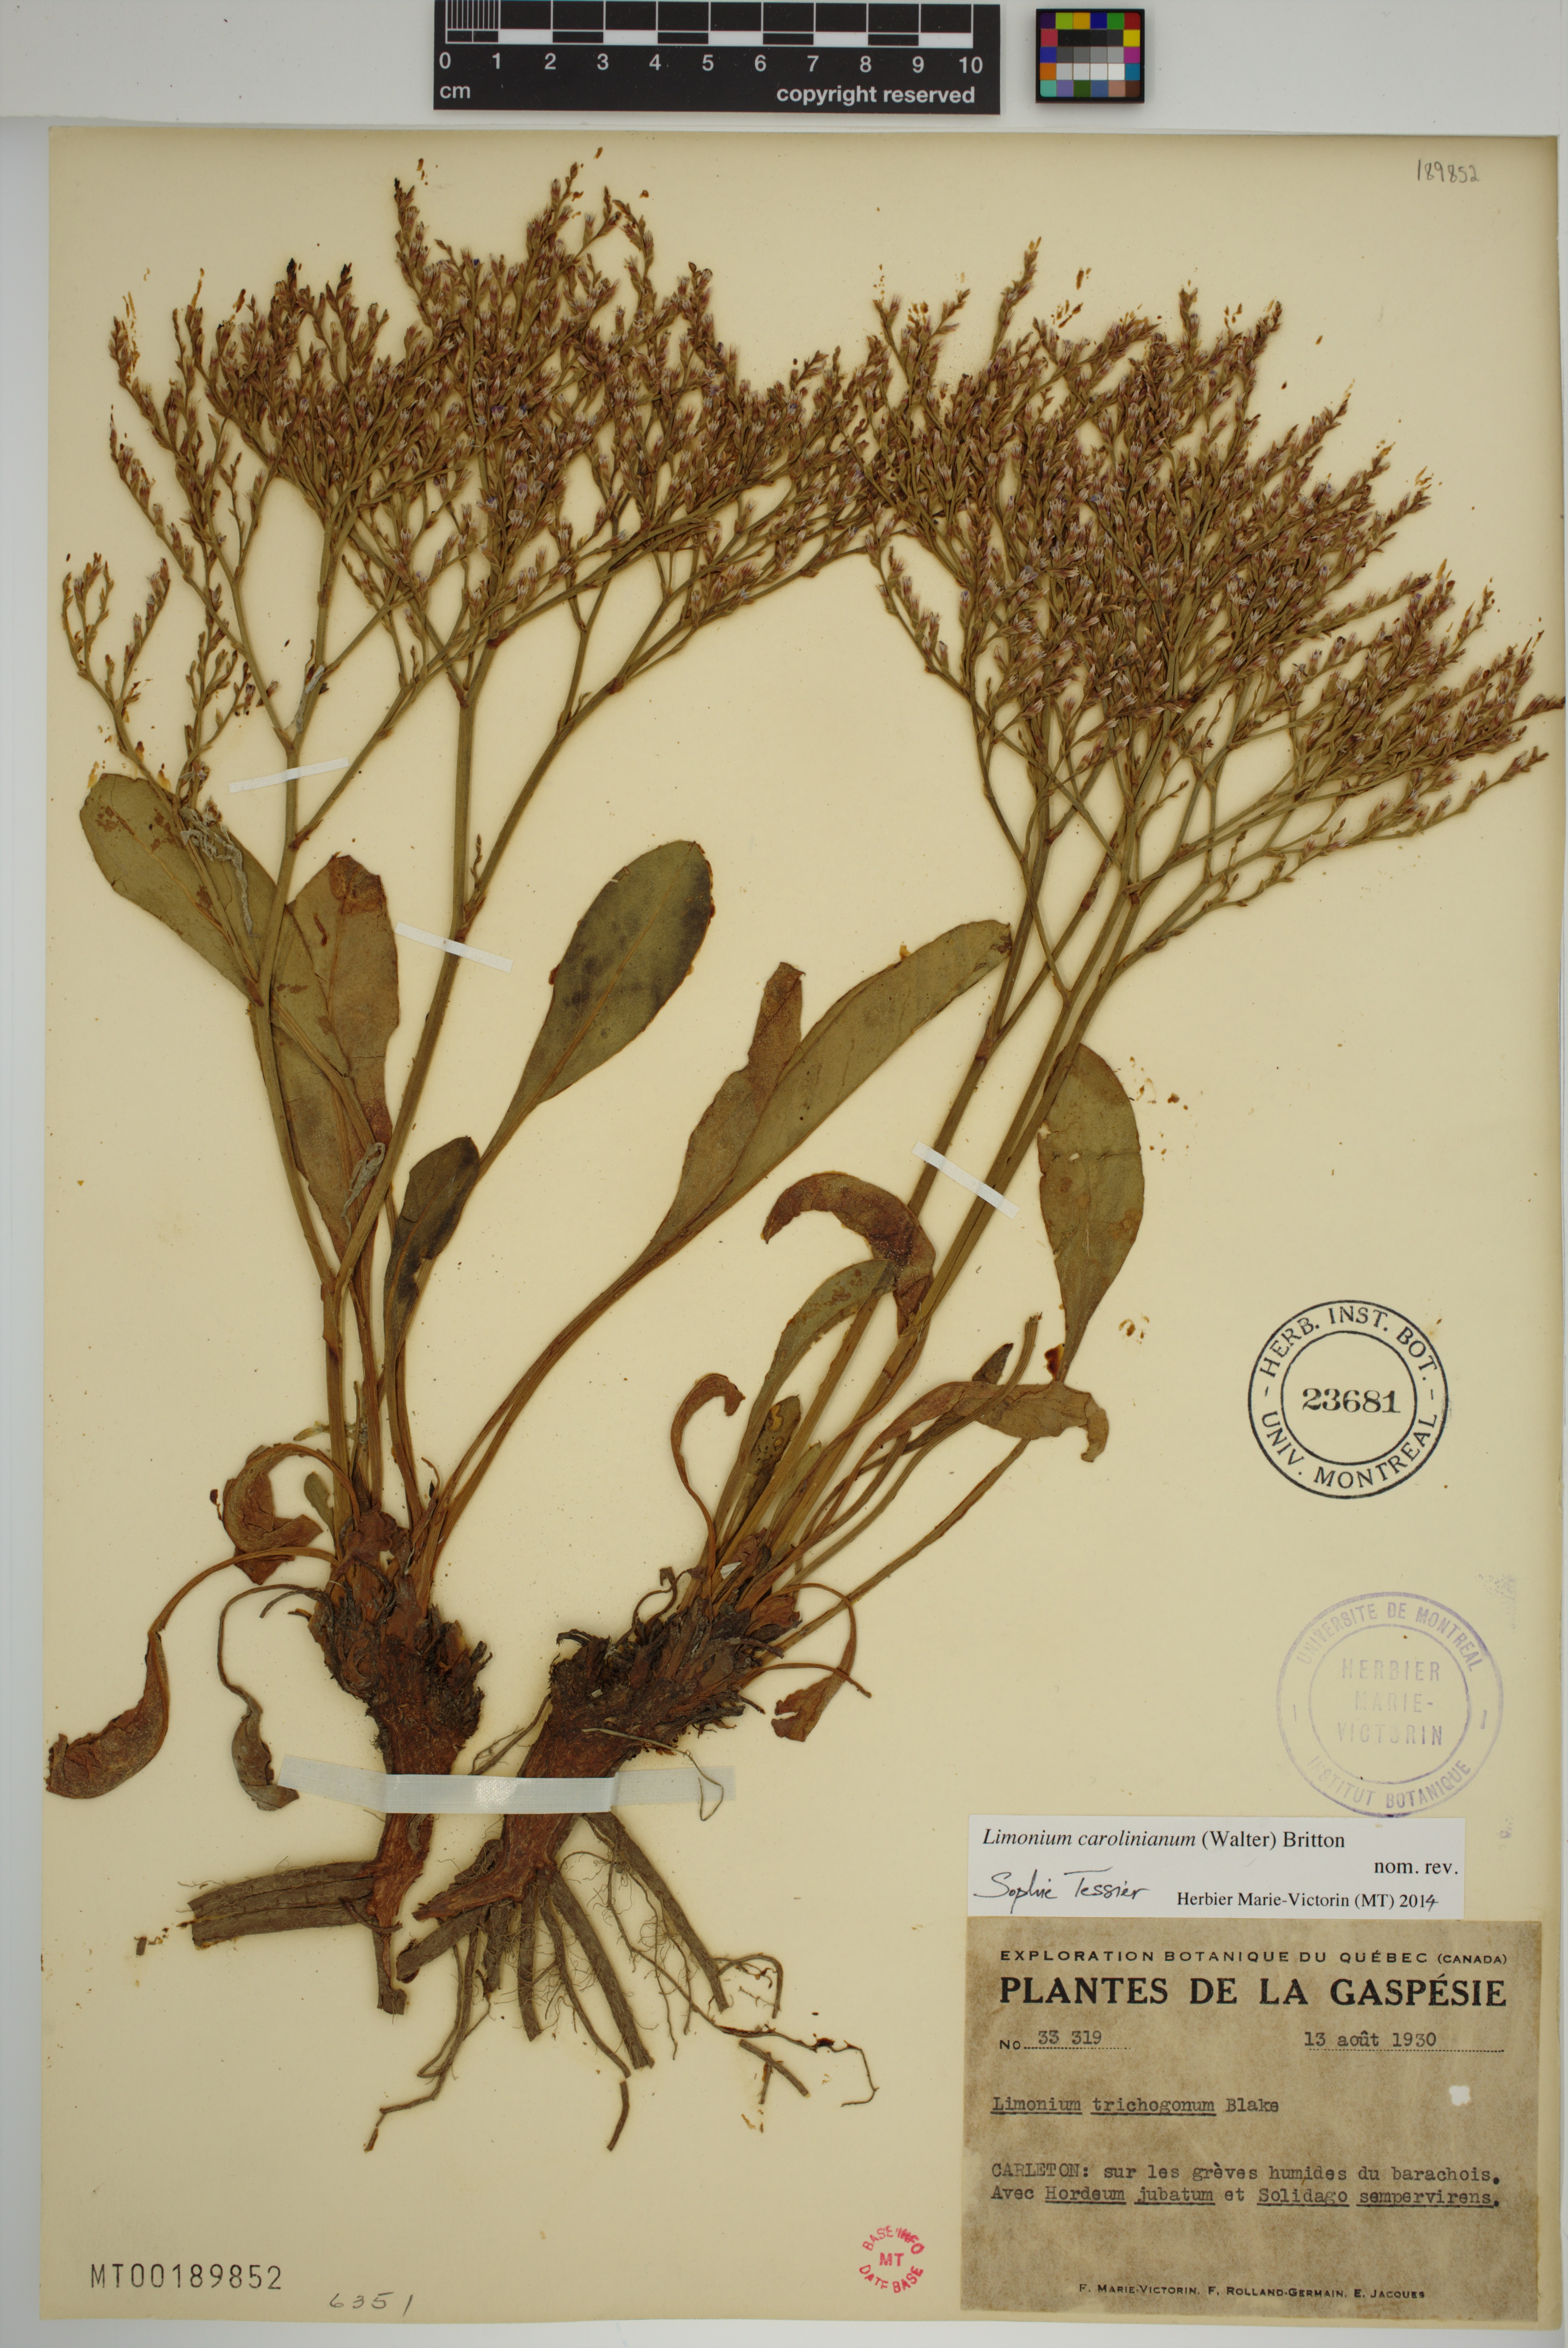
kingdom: Plantae
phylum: Tracheophyta
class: Magnoliopsida
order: Caryophyllales
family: Plumbaginaceae
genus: Limonium
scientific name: Limonium carolinianum
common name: Carolina sea lavender
